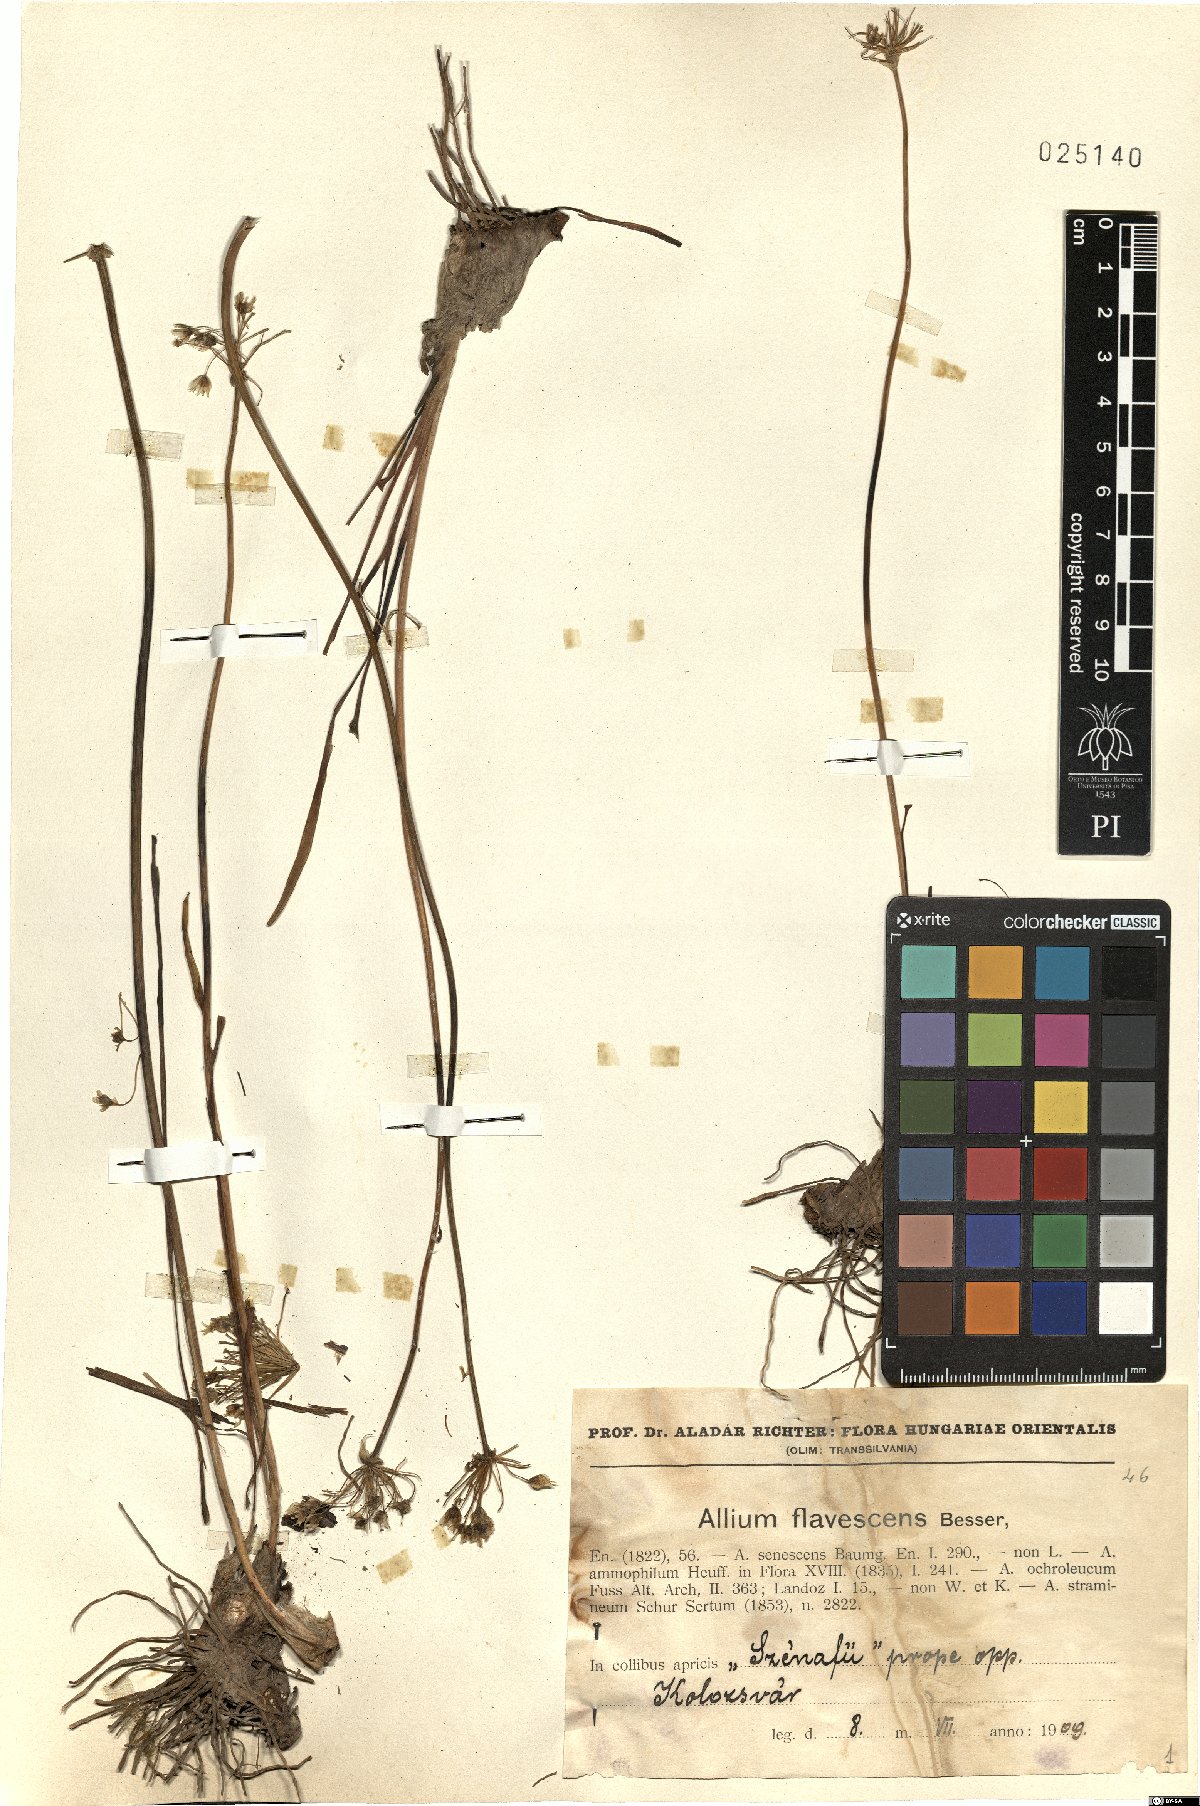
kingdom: Plantae
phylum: Tracheophyta
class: Liliopsida
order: Asparagales
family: Amaryllidaceae
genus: Allium
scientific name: Allium flavescens
